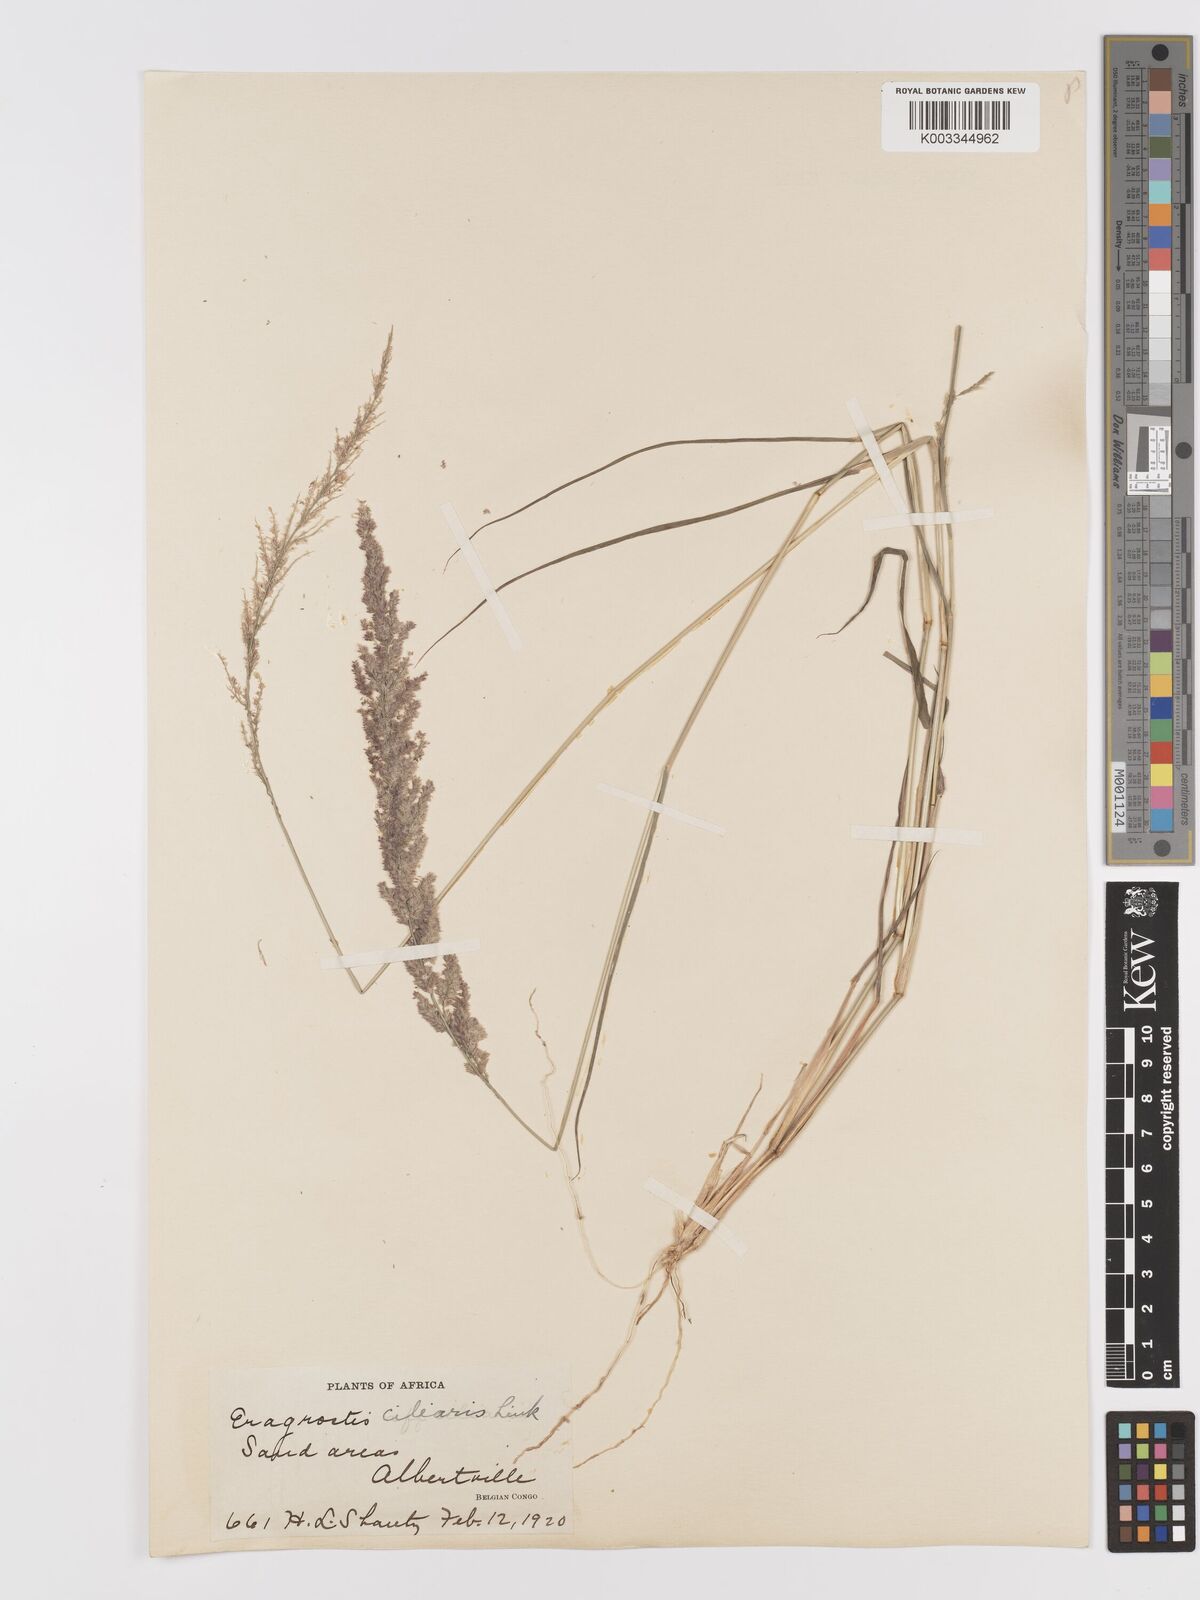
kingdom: Plantae
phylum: Tracheophyta
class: Liliopsida
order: Poales
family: Poaceae
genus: Eragrostis
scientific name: Eragrostis ciliaris
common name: Gophertail lovegrass
